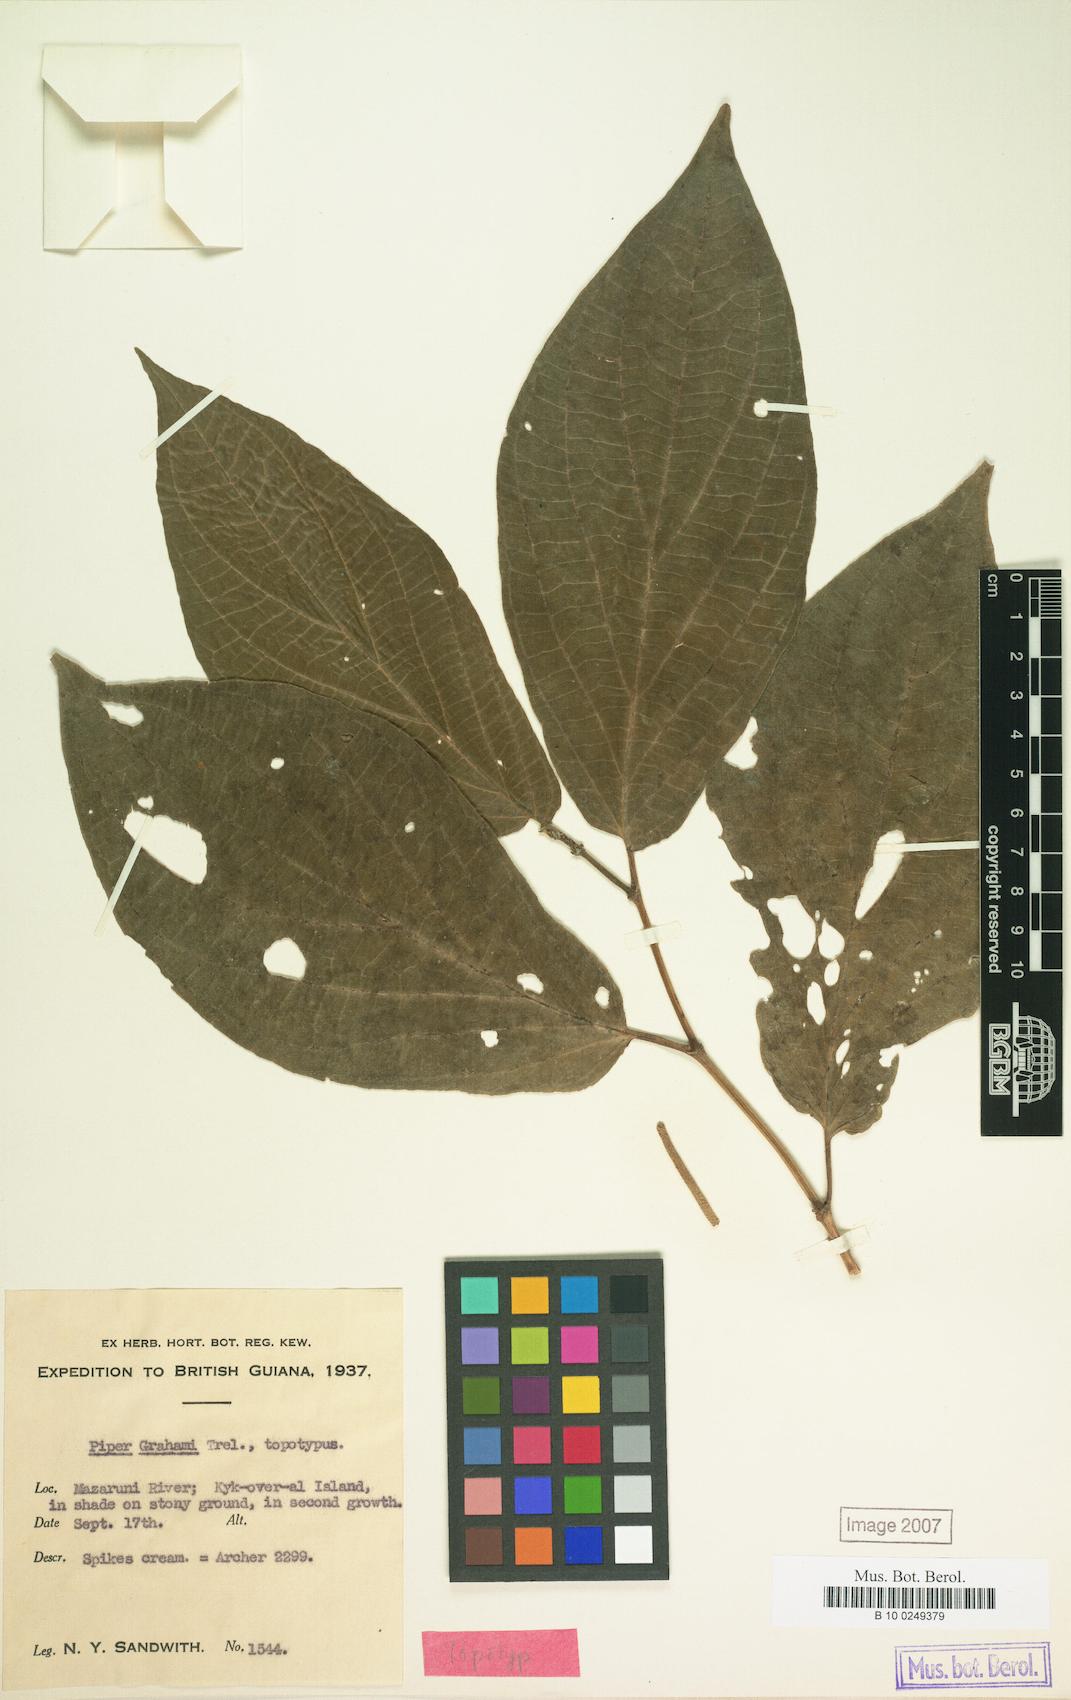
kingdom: Plantae
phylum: Tracheophyta
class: Magnoliopsida
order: Piperales
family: Piperaceae
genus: Piper
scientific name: Piper dilatatum
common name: Higuillo
